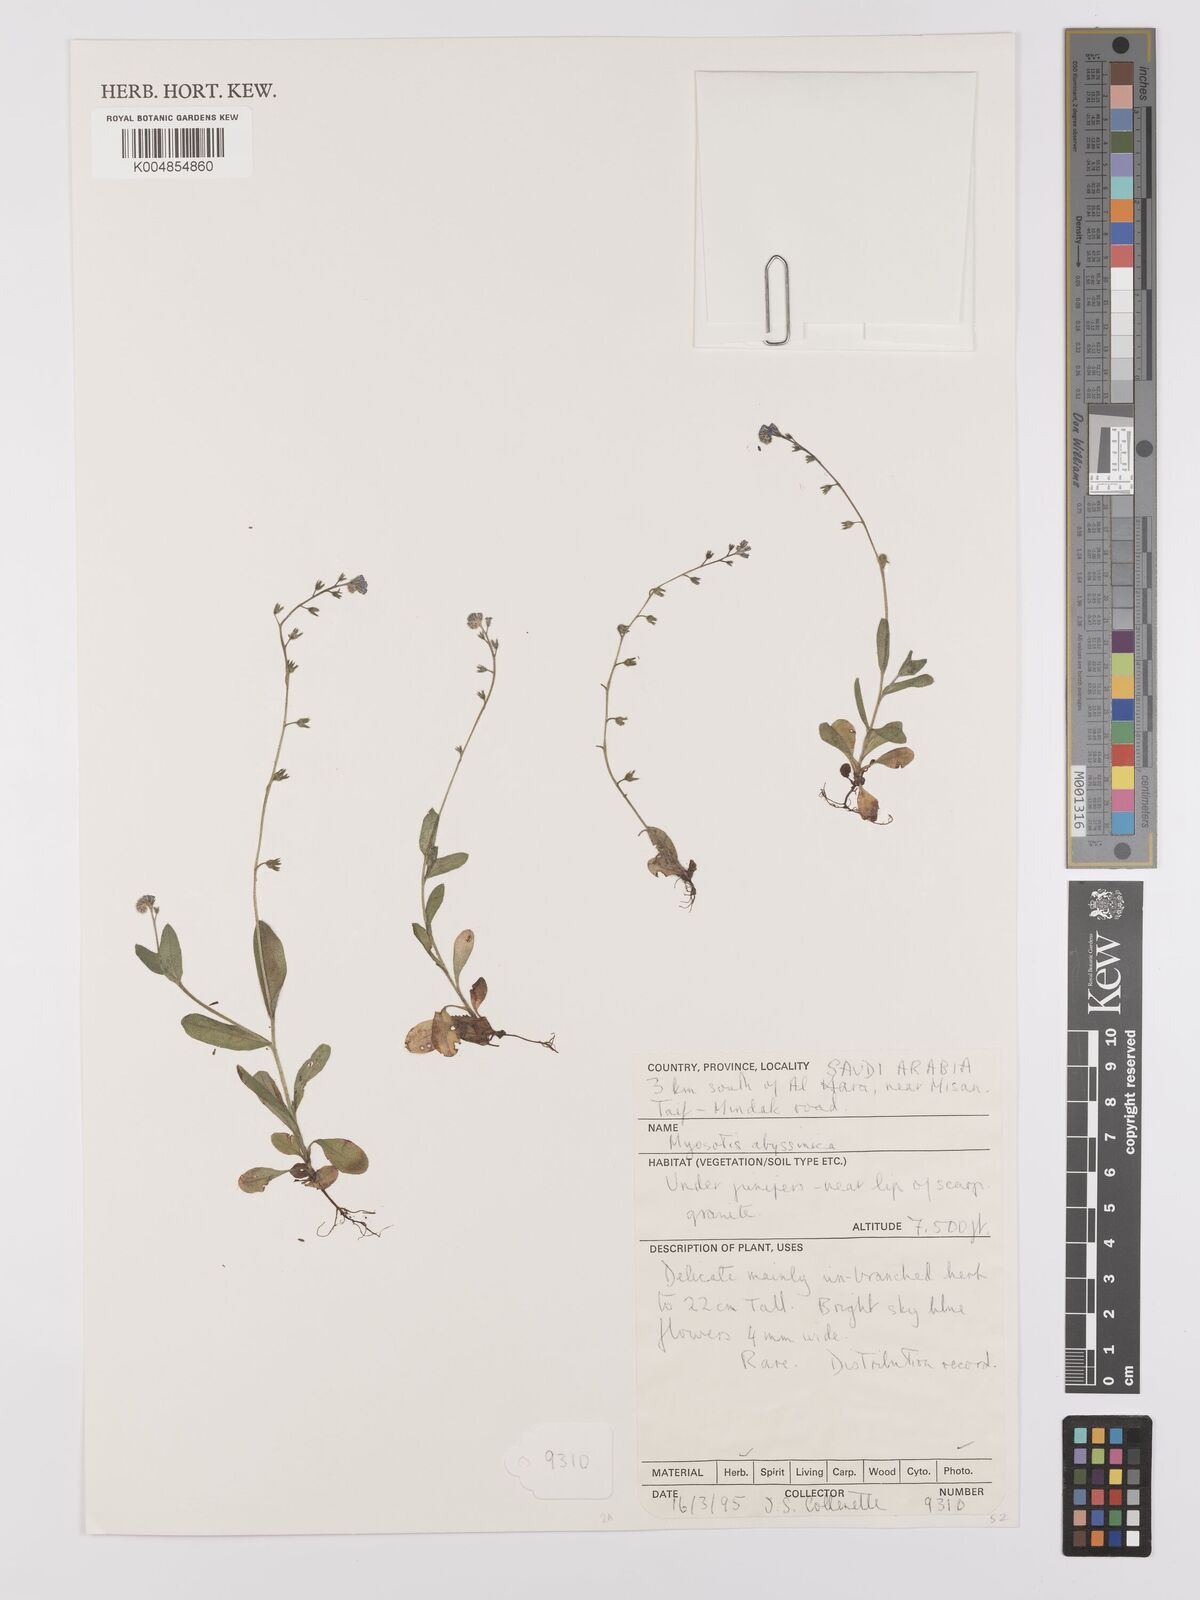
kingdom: Plantae
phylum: Tracheophyta
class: Magnoliopsida
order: Boraginales
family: Boraginaceae
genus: Myosotis
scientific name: Myosotis abyssinica
